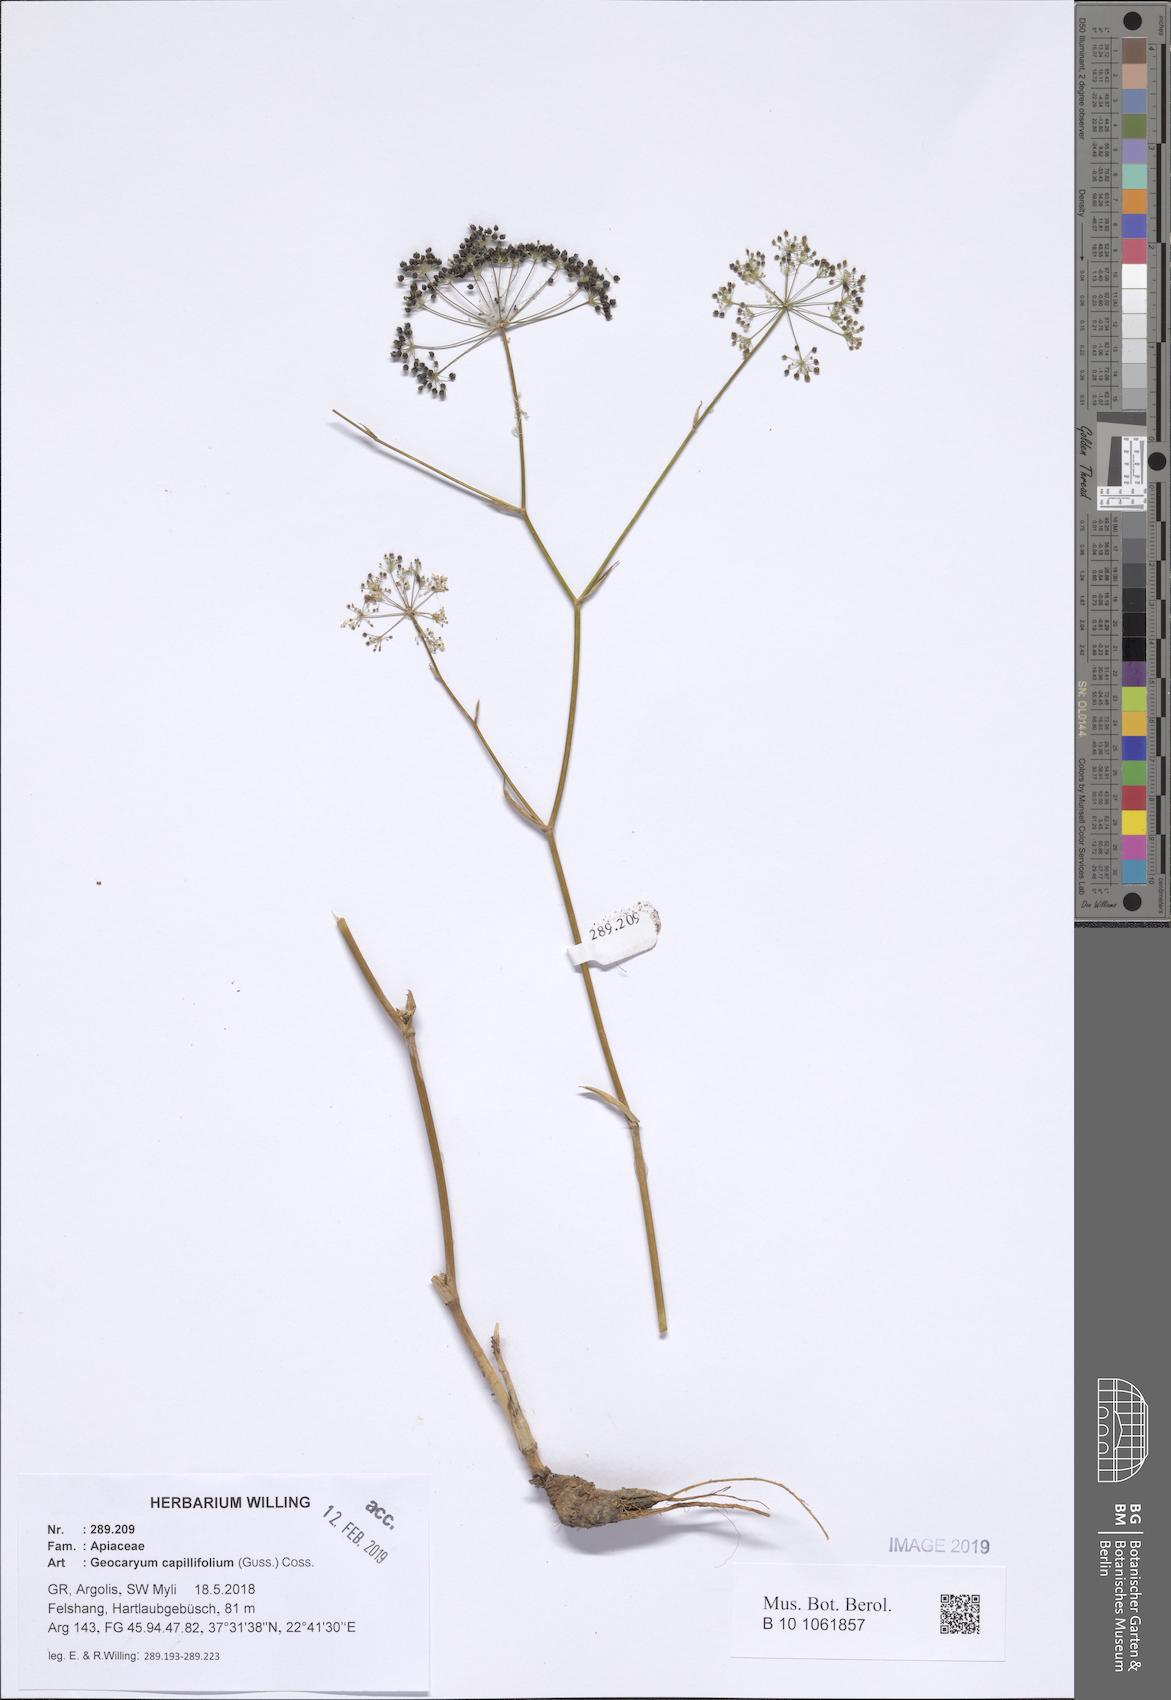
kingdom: Plantae
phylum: Tracheophyta
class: Magnoliopsida
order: Apiales
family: Apiaceae
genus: Geocaryum
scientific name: Geocaryum capillifolium
